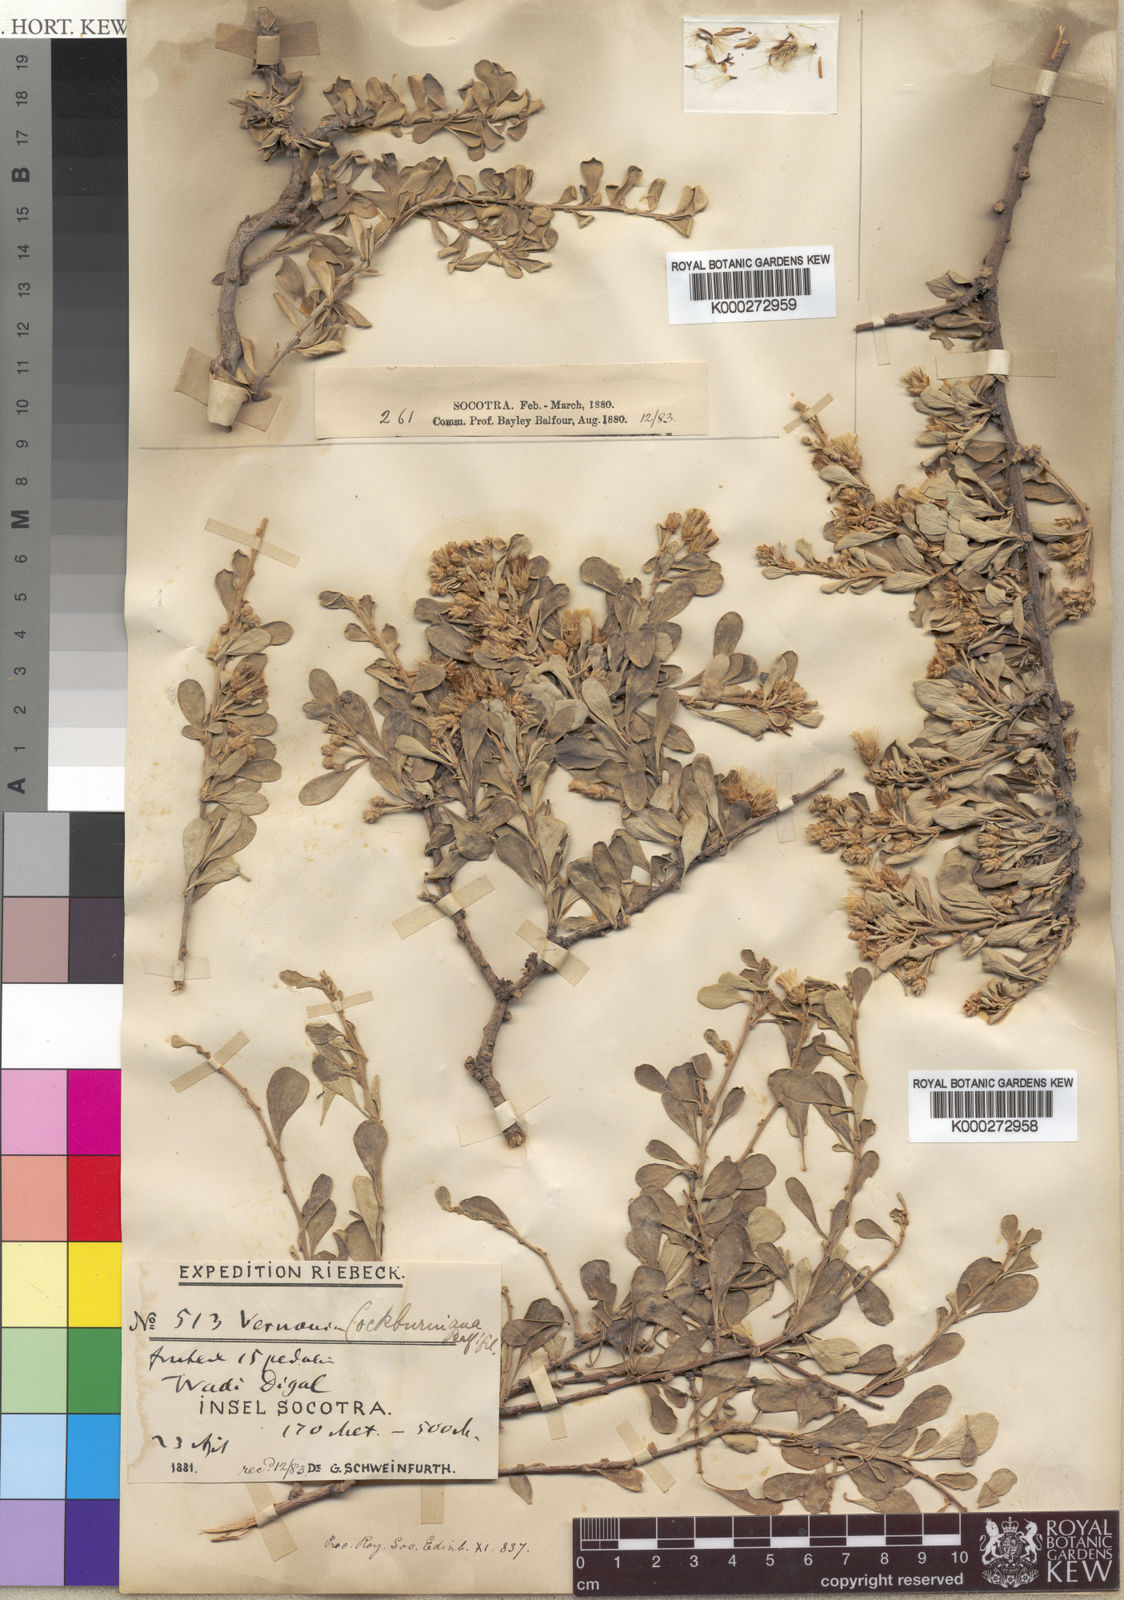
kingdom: Plantae
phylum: Tracheophyta
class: Magnoliopsida
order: Asterales
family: Asteraceae
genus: Vernonia
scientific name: Vernonia cockburniana
